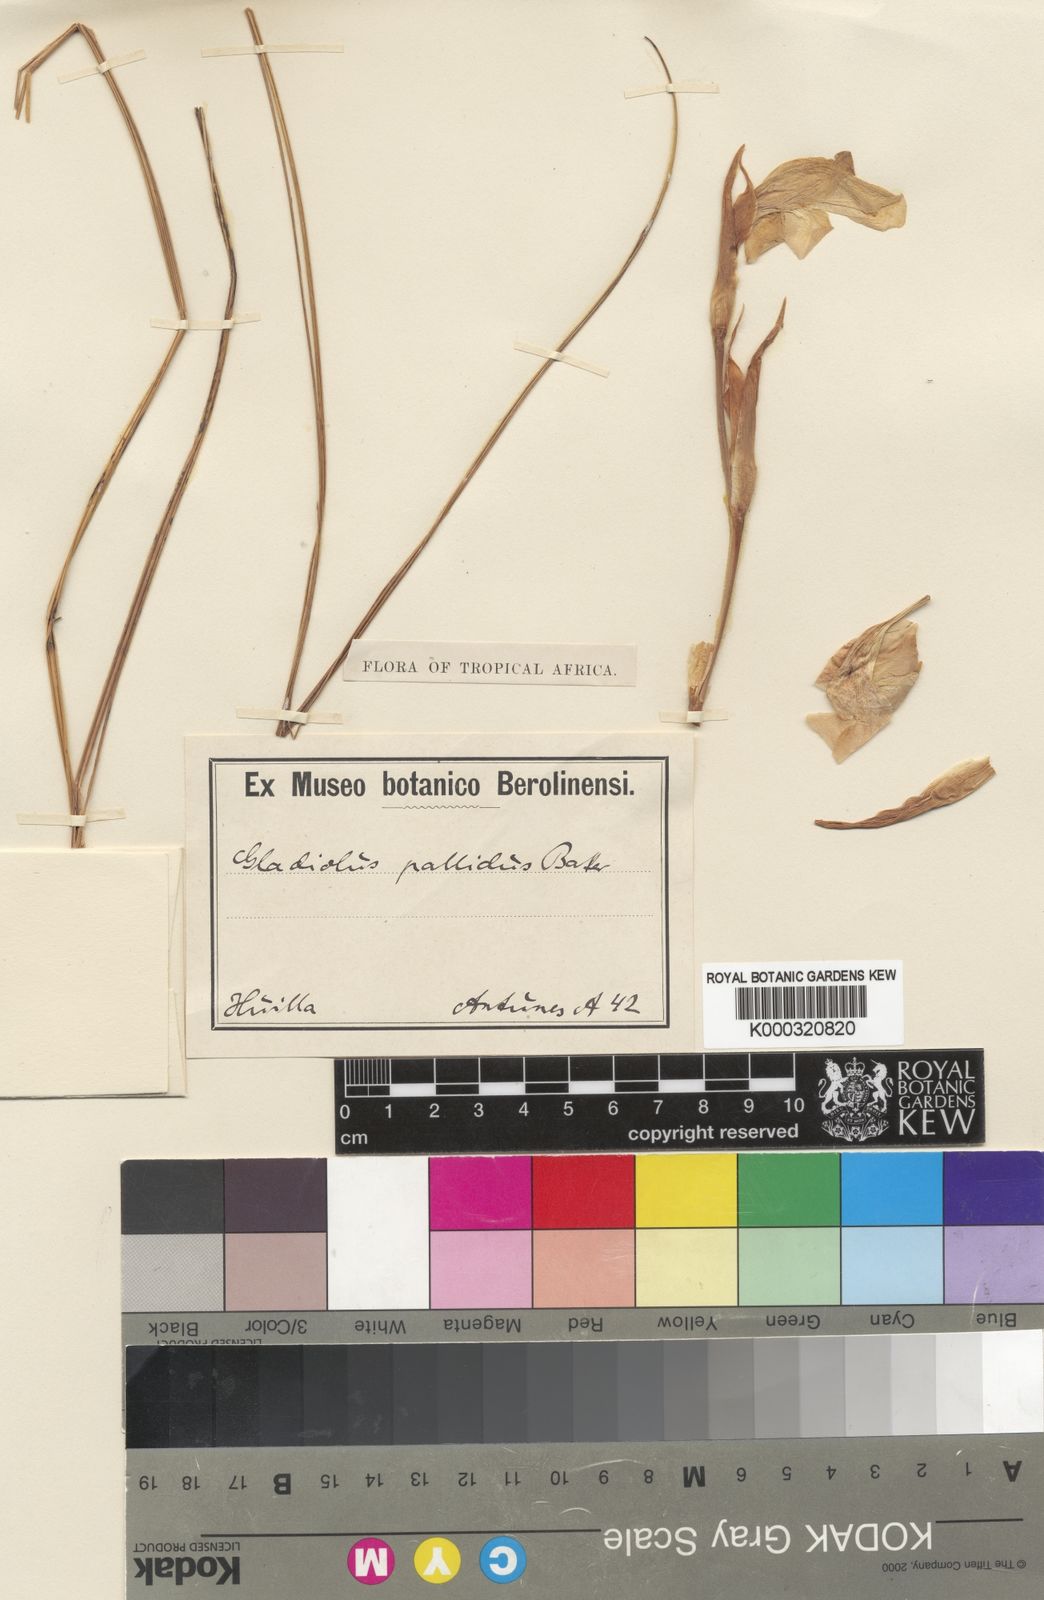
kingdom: Plantae
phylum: Tracheophyta
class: Liliopsida
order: Asparagales
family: Iridaceae
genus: Gladiolus
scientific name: Gladiolus baumii
